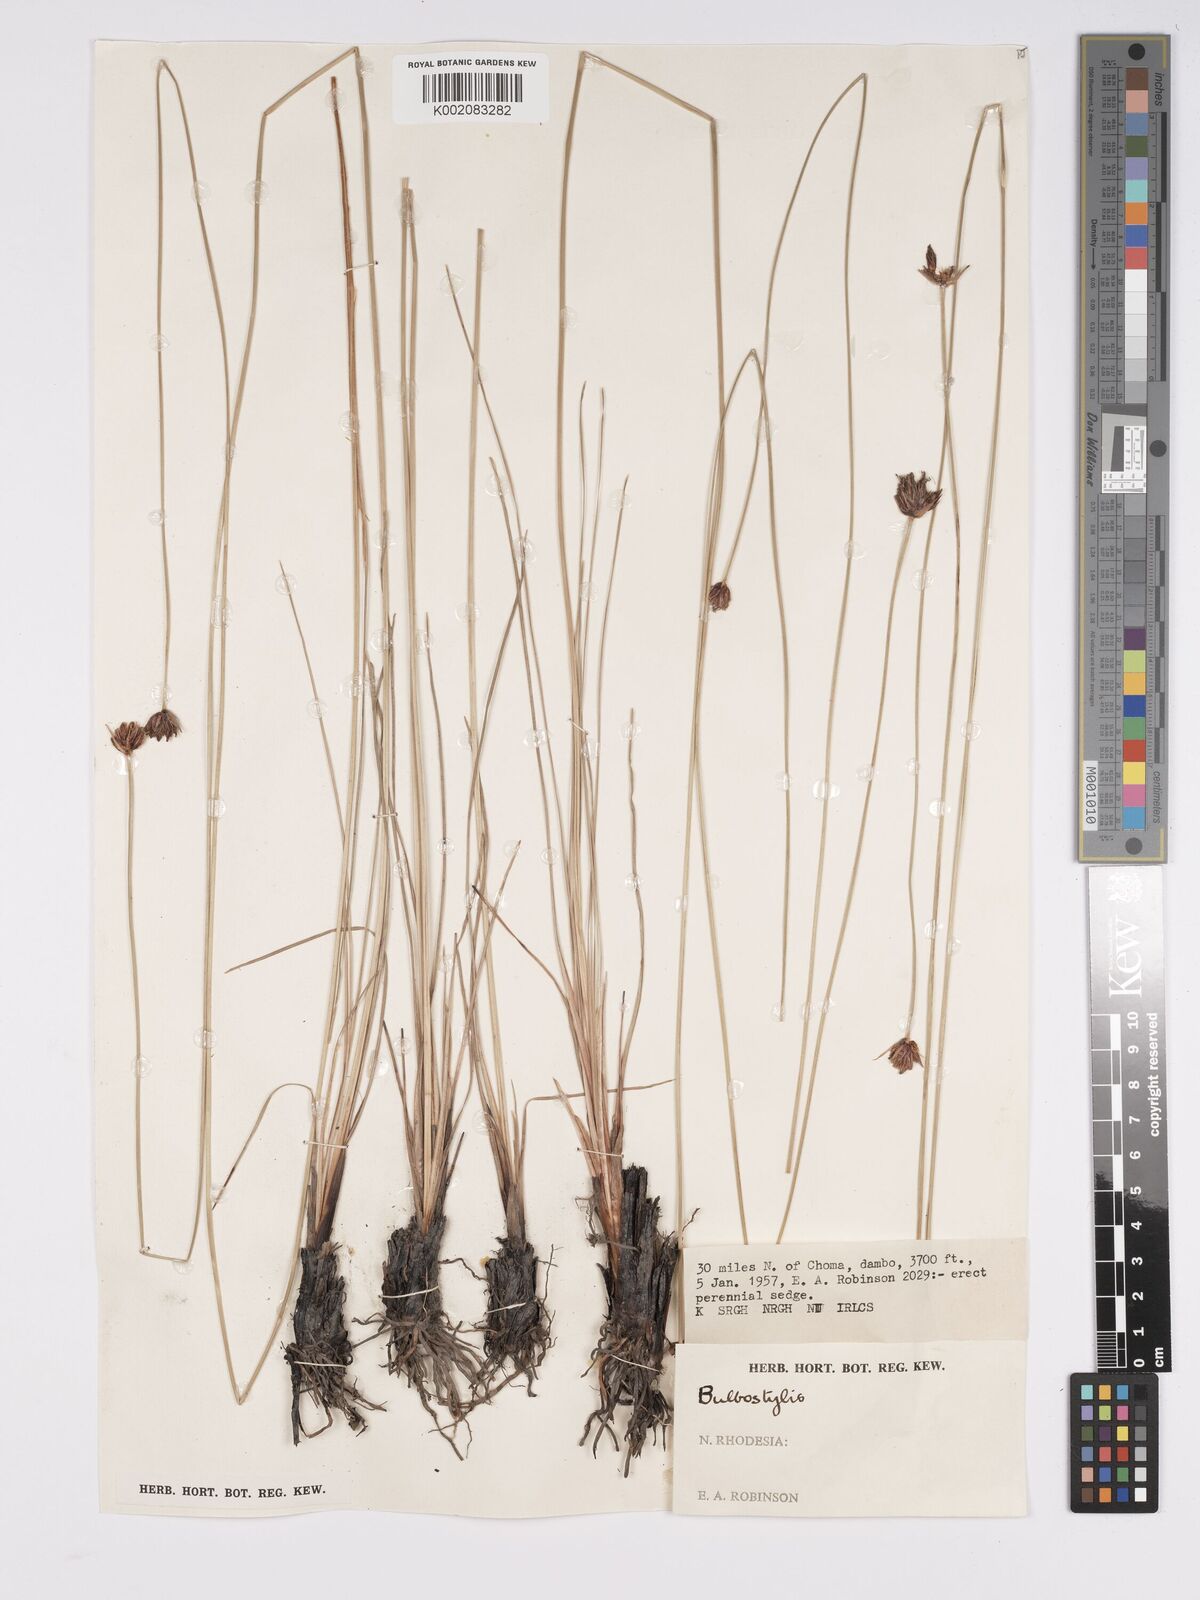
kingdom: Plantae
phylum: Tracheophyta
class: Liliopsida
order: Poales
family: Cyperaceae
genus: Bulbostylis
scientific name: Bulbostylis schoenoides
